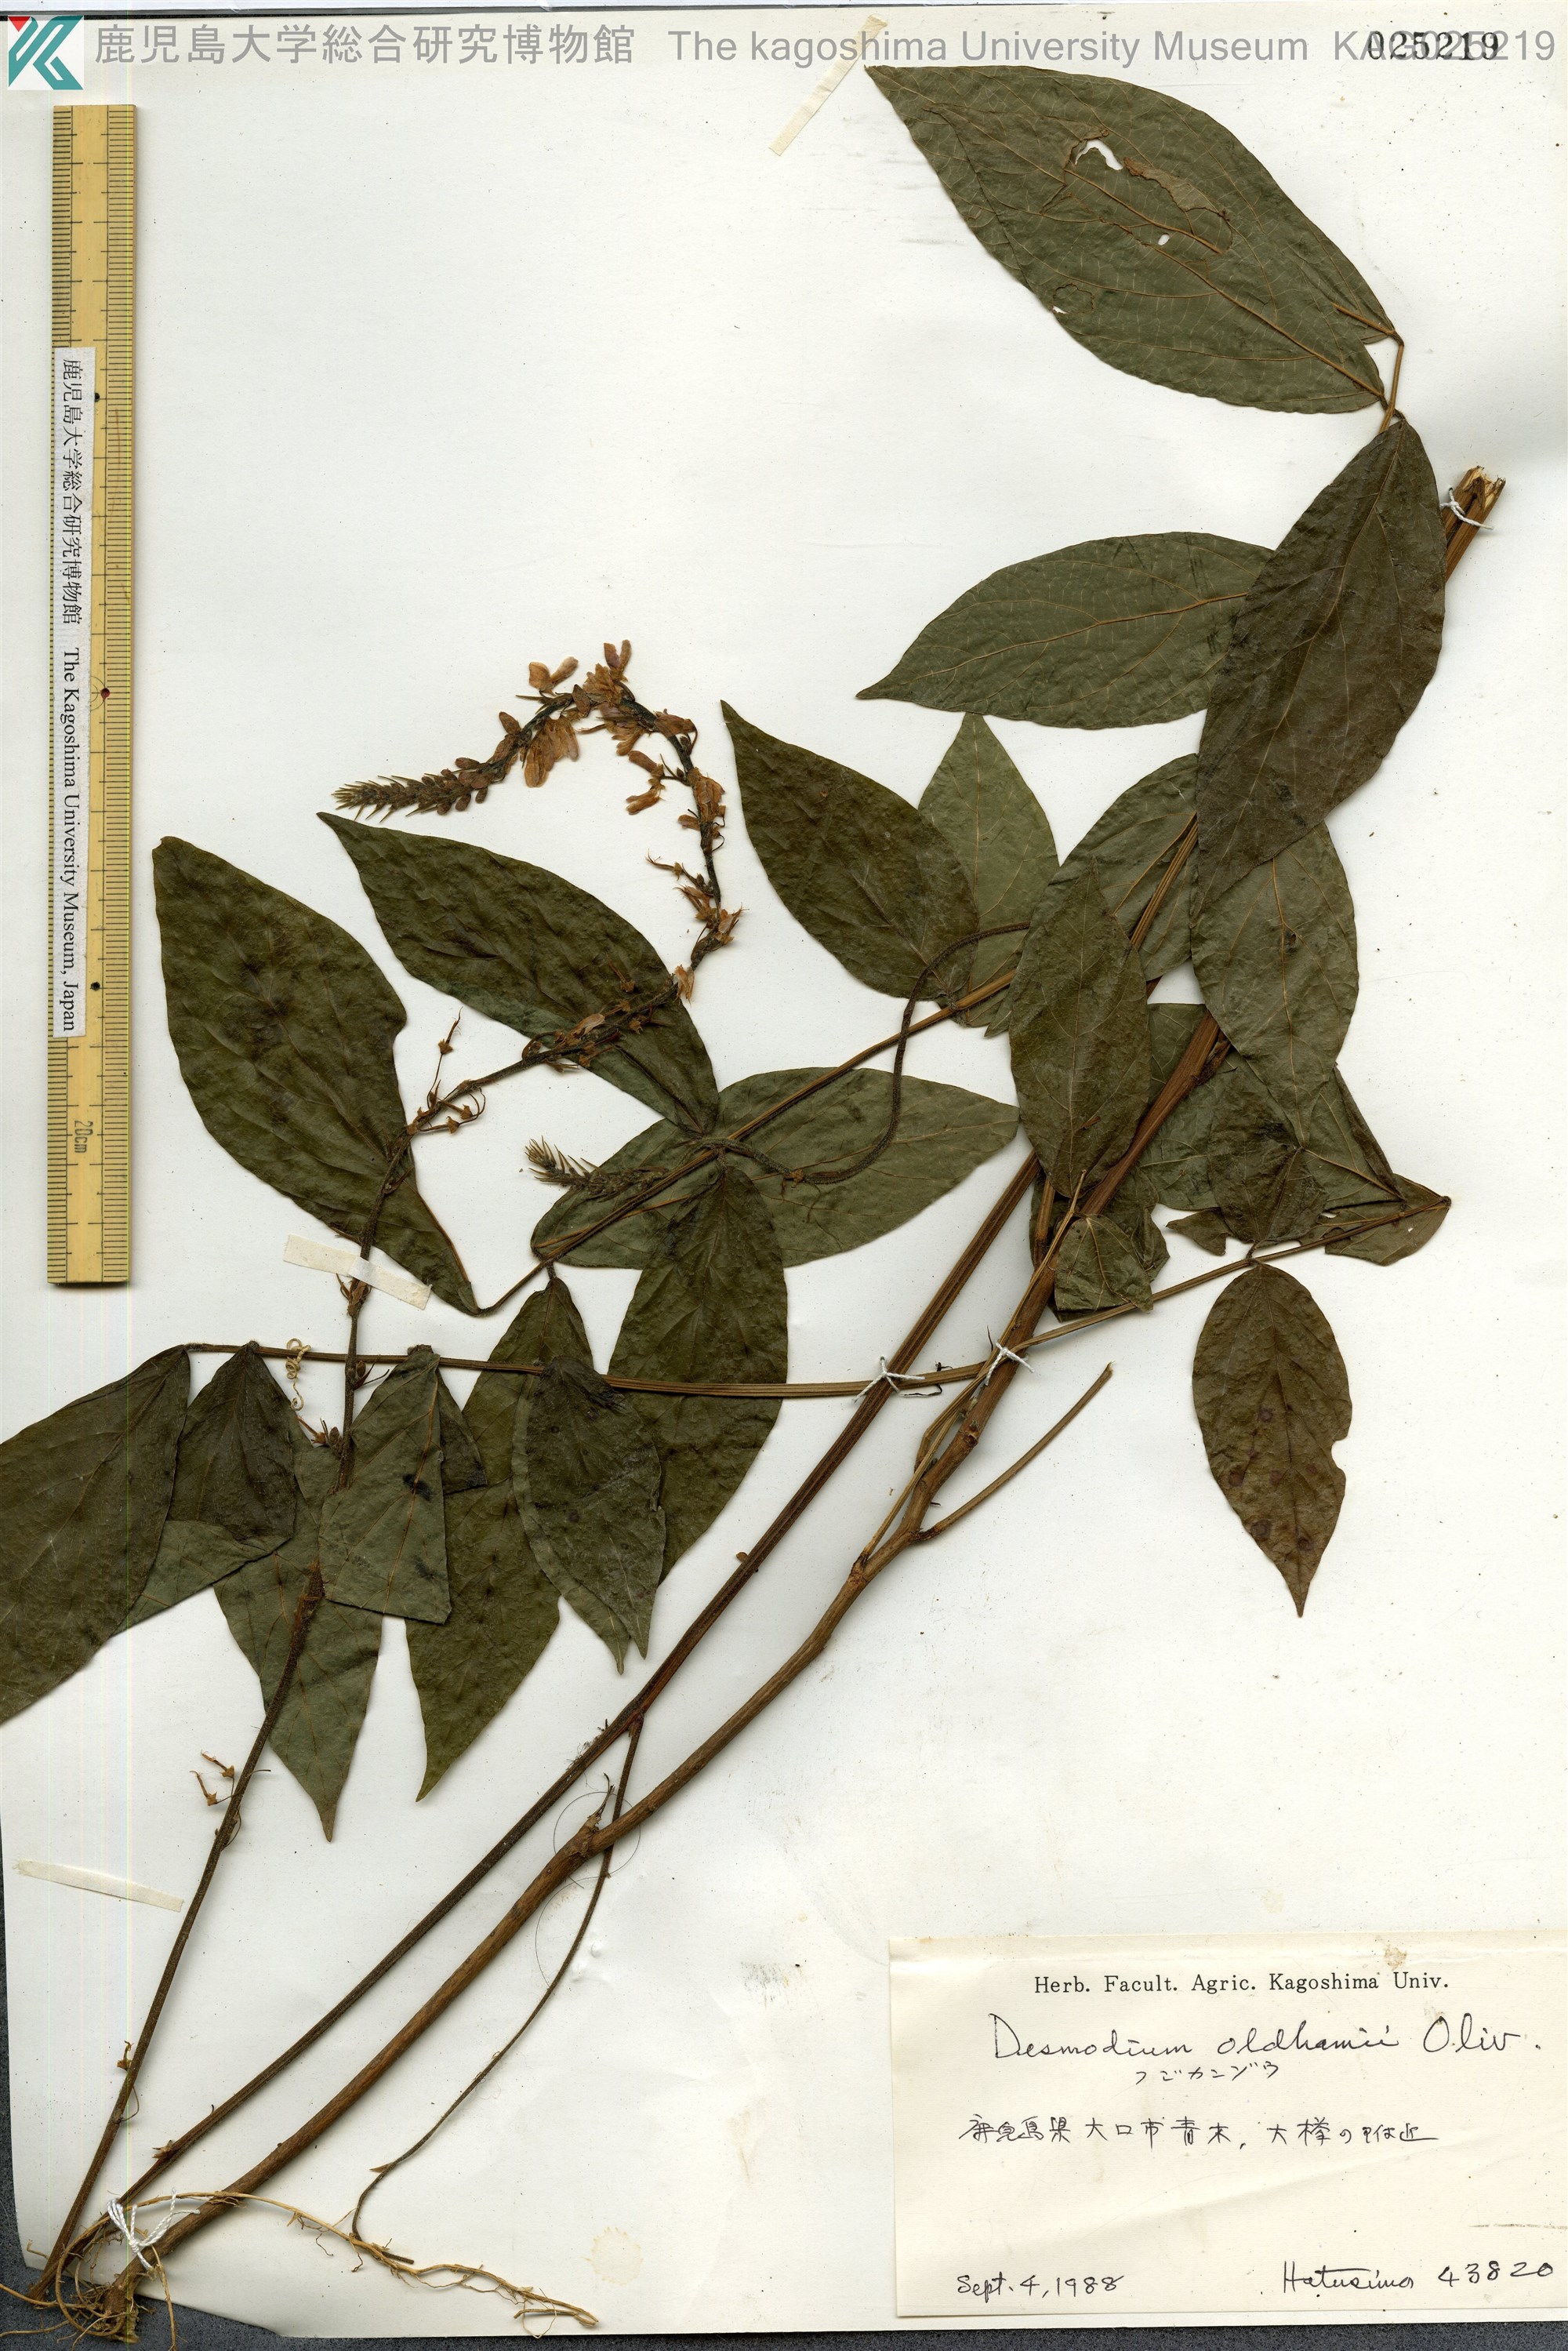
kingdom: Plantae
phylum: Tracheophyta
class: Magnoliopsida
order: Fabales
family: Fabaceae
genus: Hylodesmum
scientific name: Hylodesmum oldhamii
